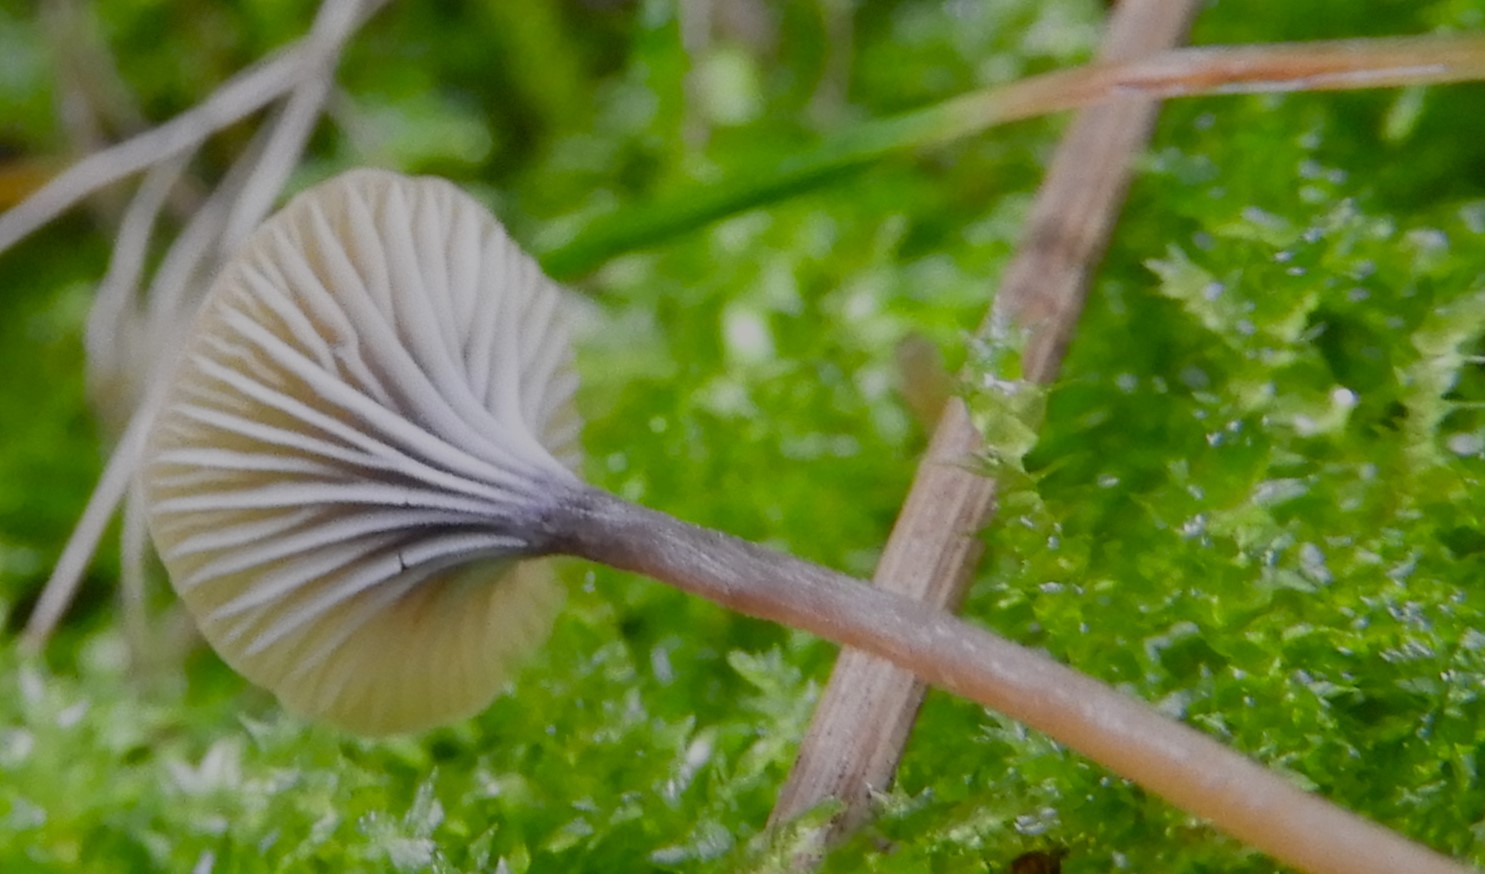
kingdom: Fungi
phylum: Basidiomycota
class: Agaricomycetes
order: Hymenochaetales
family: Rickenellaceae
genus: Rickenella
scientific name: Rickenella swartzii
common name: finstokket mosnavlehat
